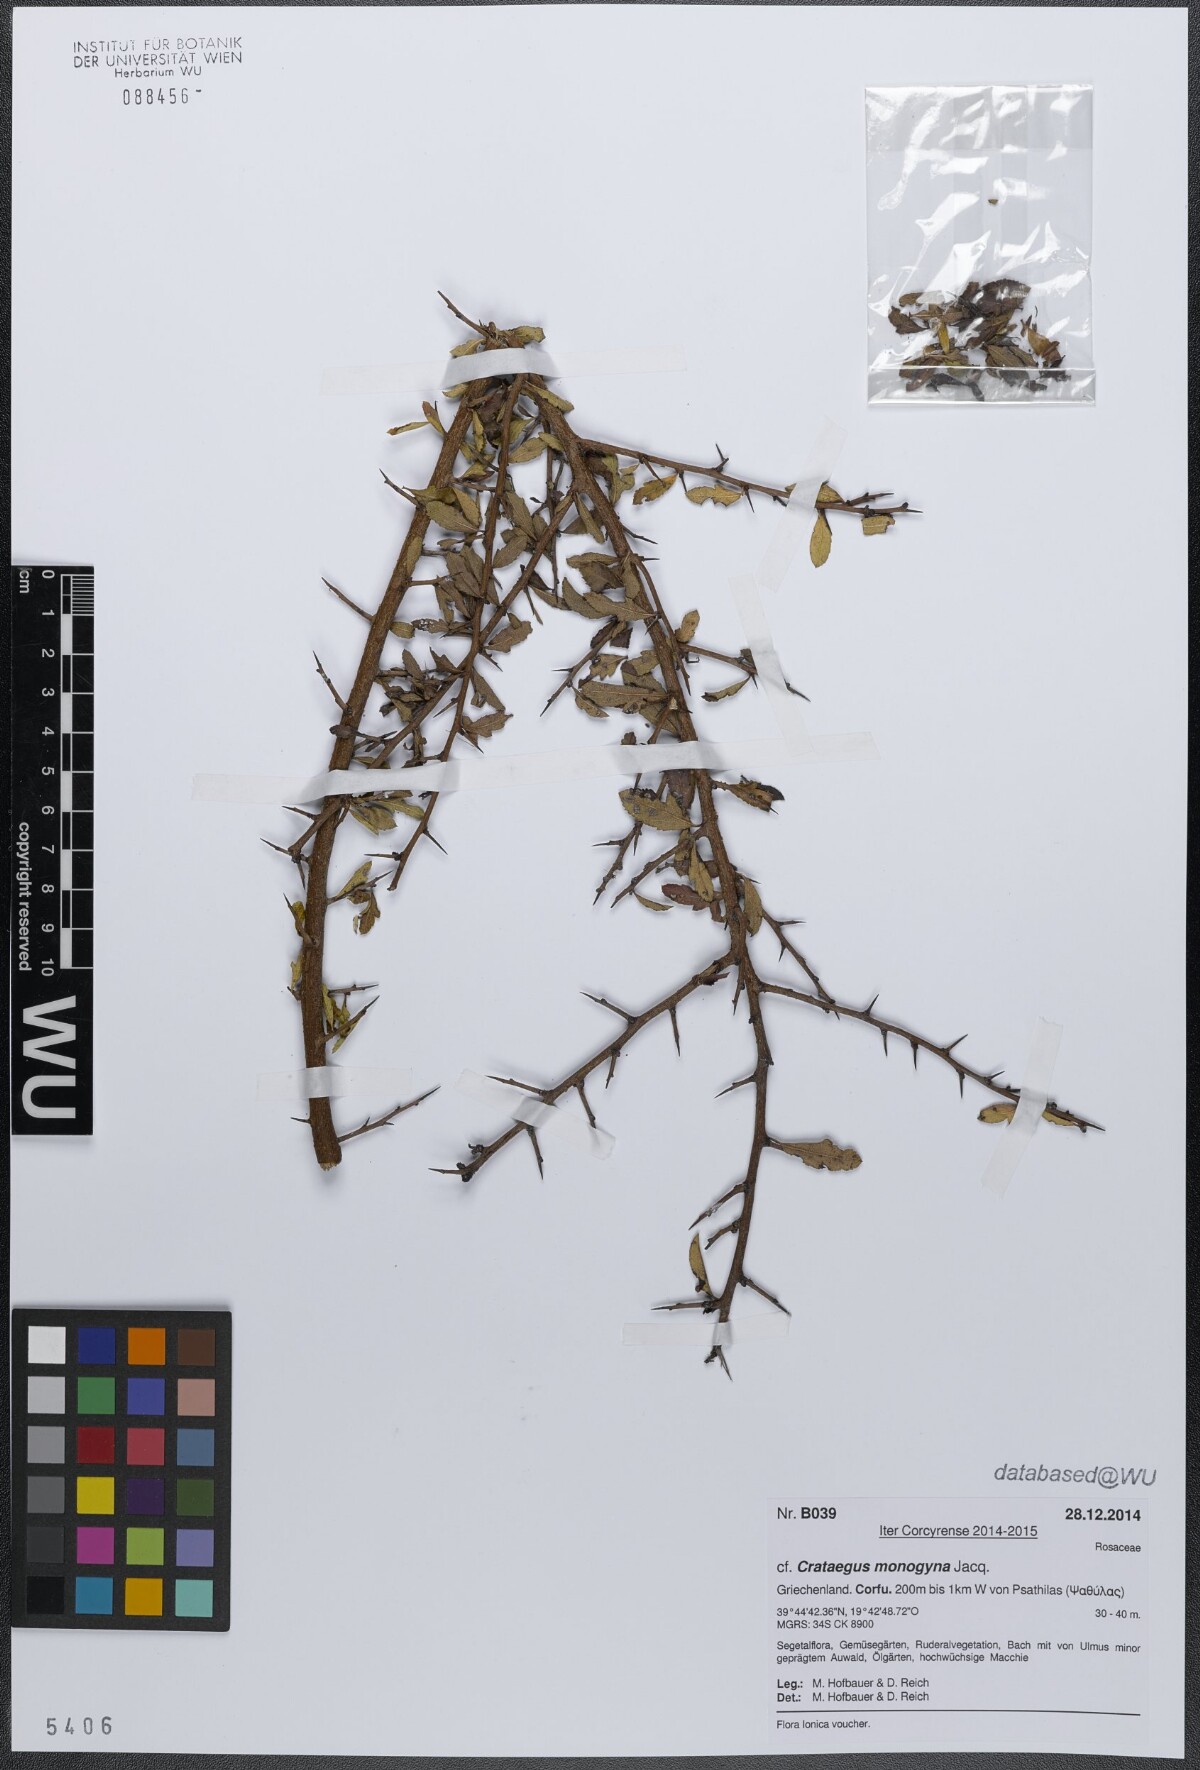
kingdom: Plantae
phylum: Tracheophyta
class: Magnoliopsida
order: Rosales
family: Rosaceae
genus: Crataegus
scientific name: Crataegus monogyna
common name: Hawthorn
